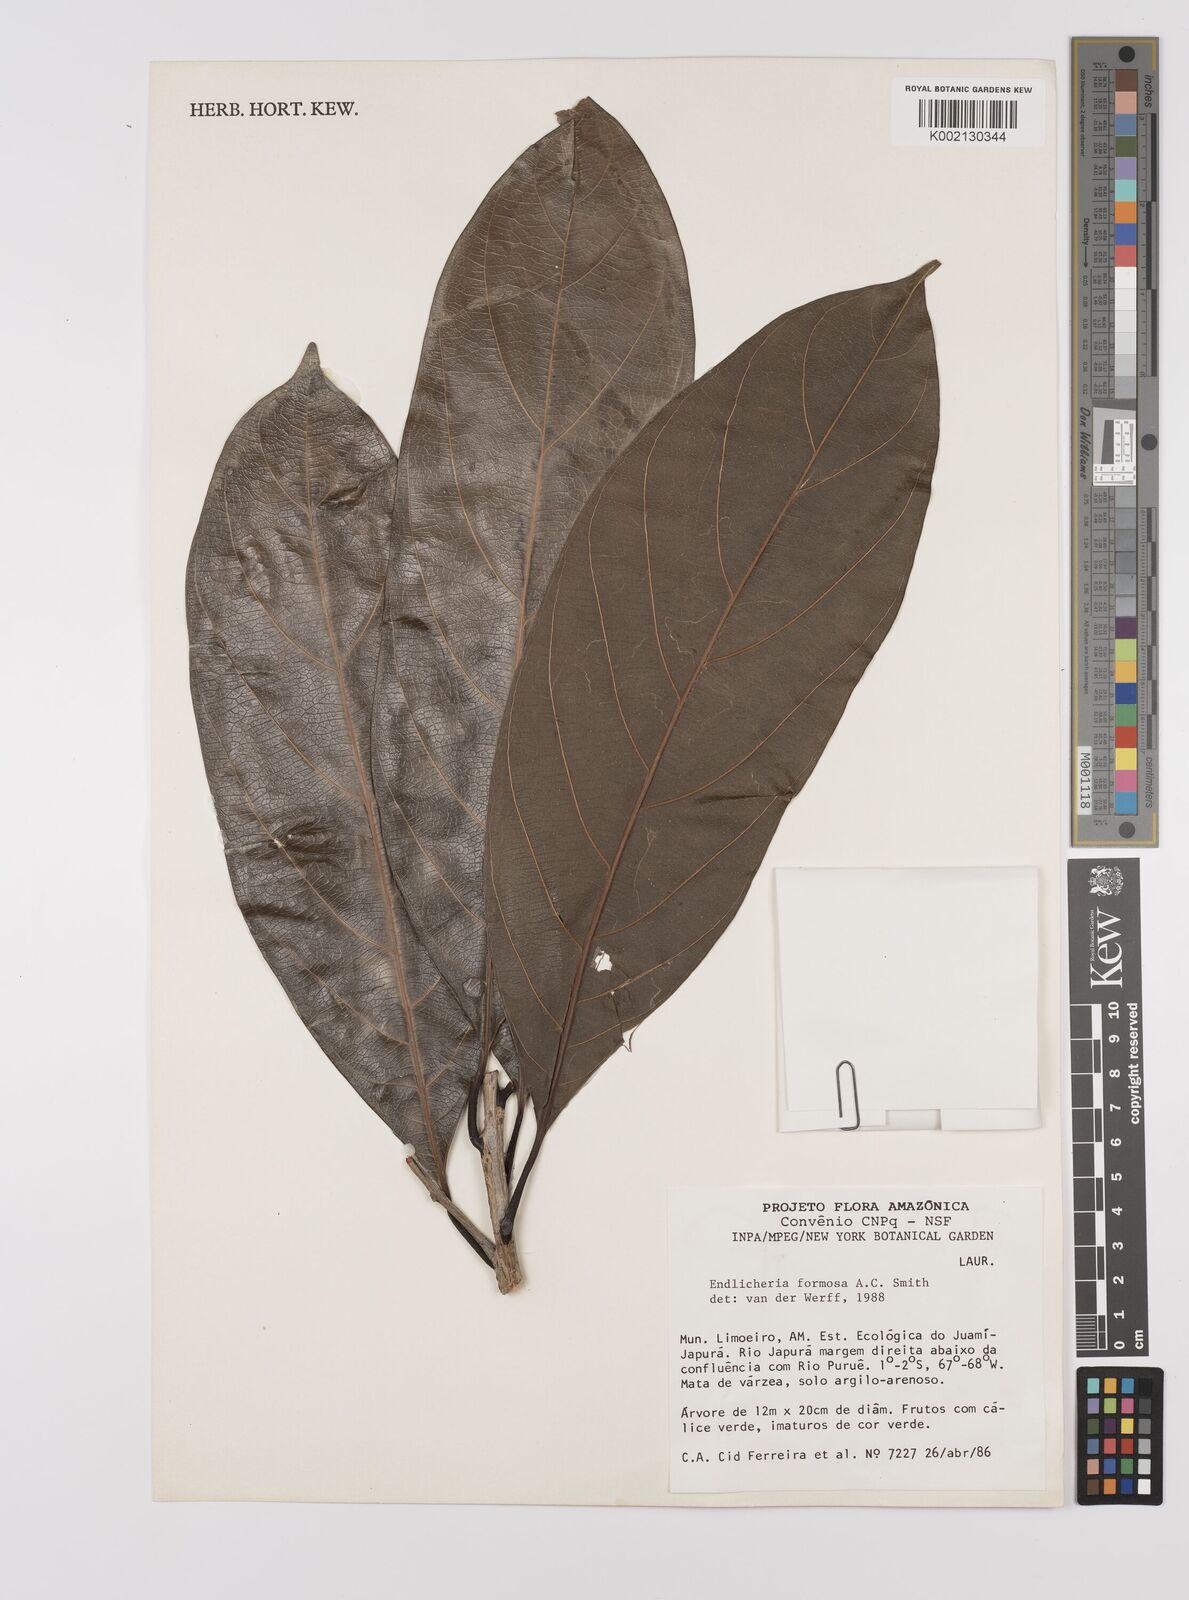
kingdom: Plantae
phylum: Tracheophyta
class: Magnoliopsida
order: Laurales
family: Lauraceae
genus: Endlicheria
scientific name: Endlicheria formosa
